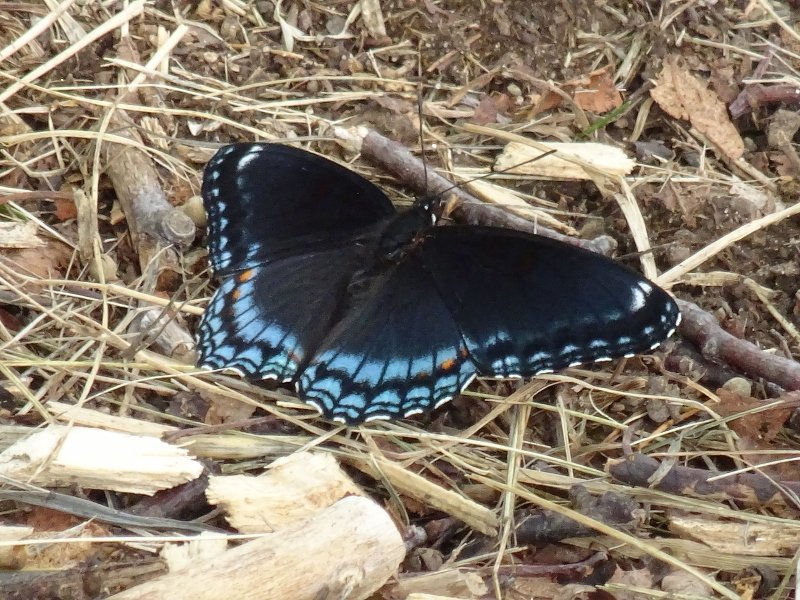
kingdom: Animalia
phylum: Arthropoda
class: Insecta
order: Lepidoptera
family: Nymphalidae
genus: Limenitis
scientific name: Limenitis astyanax
